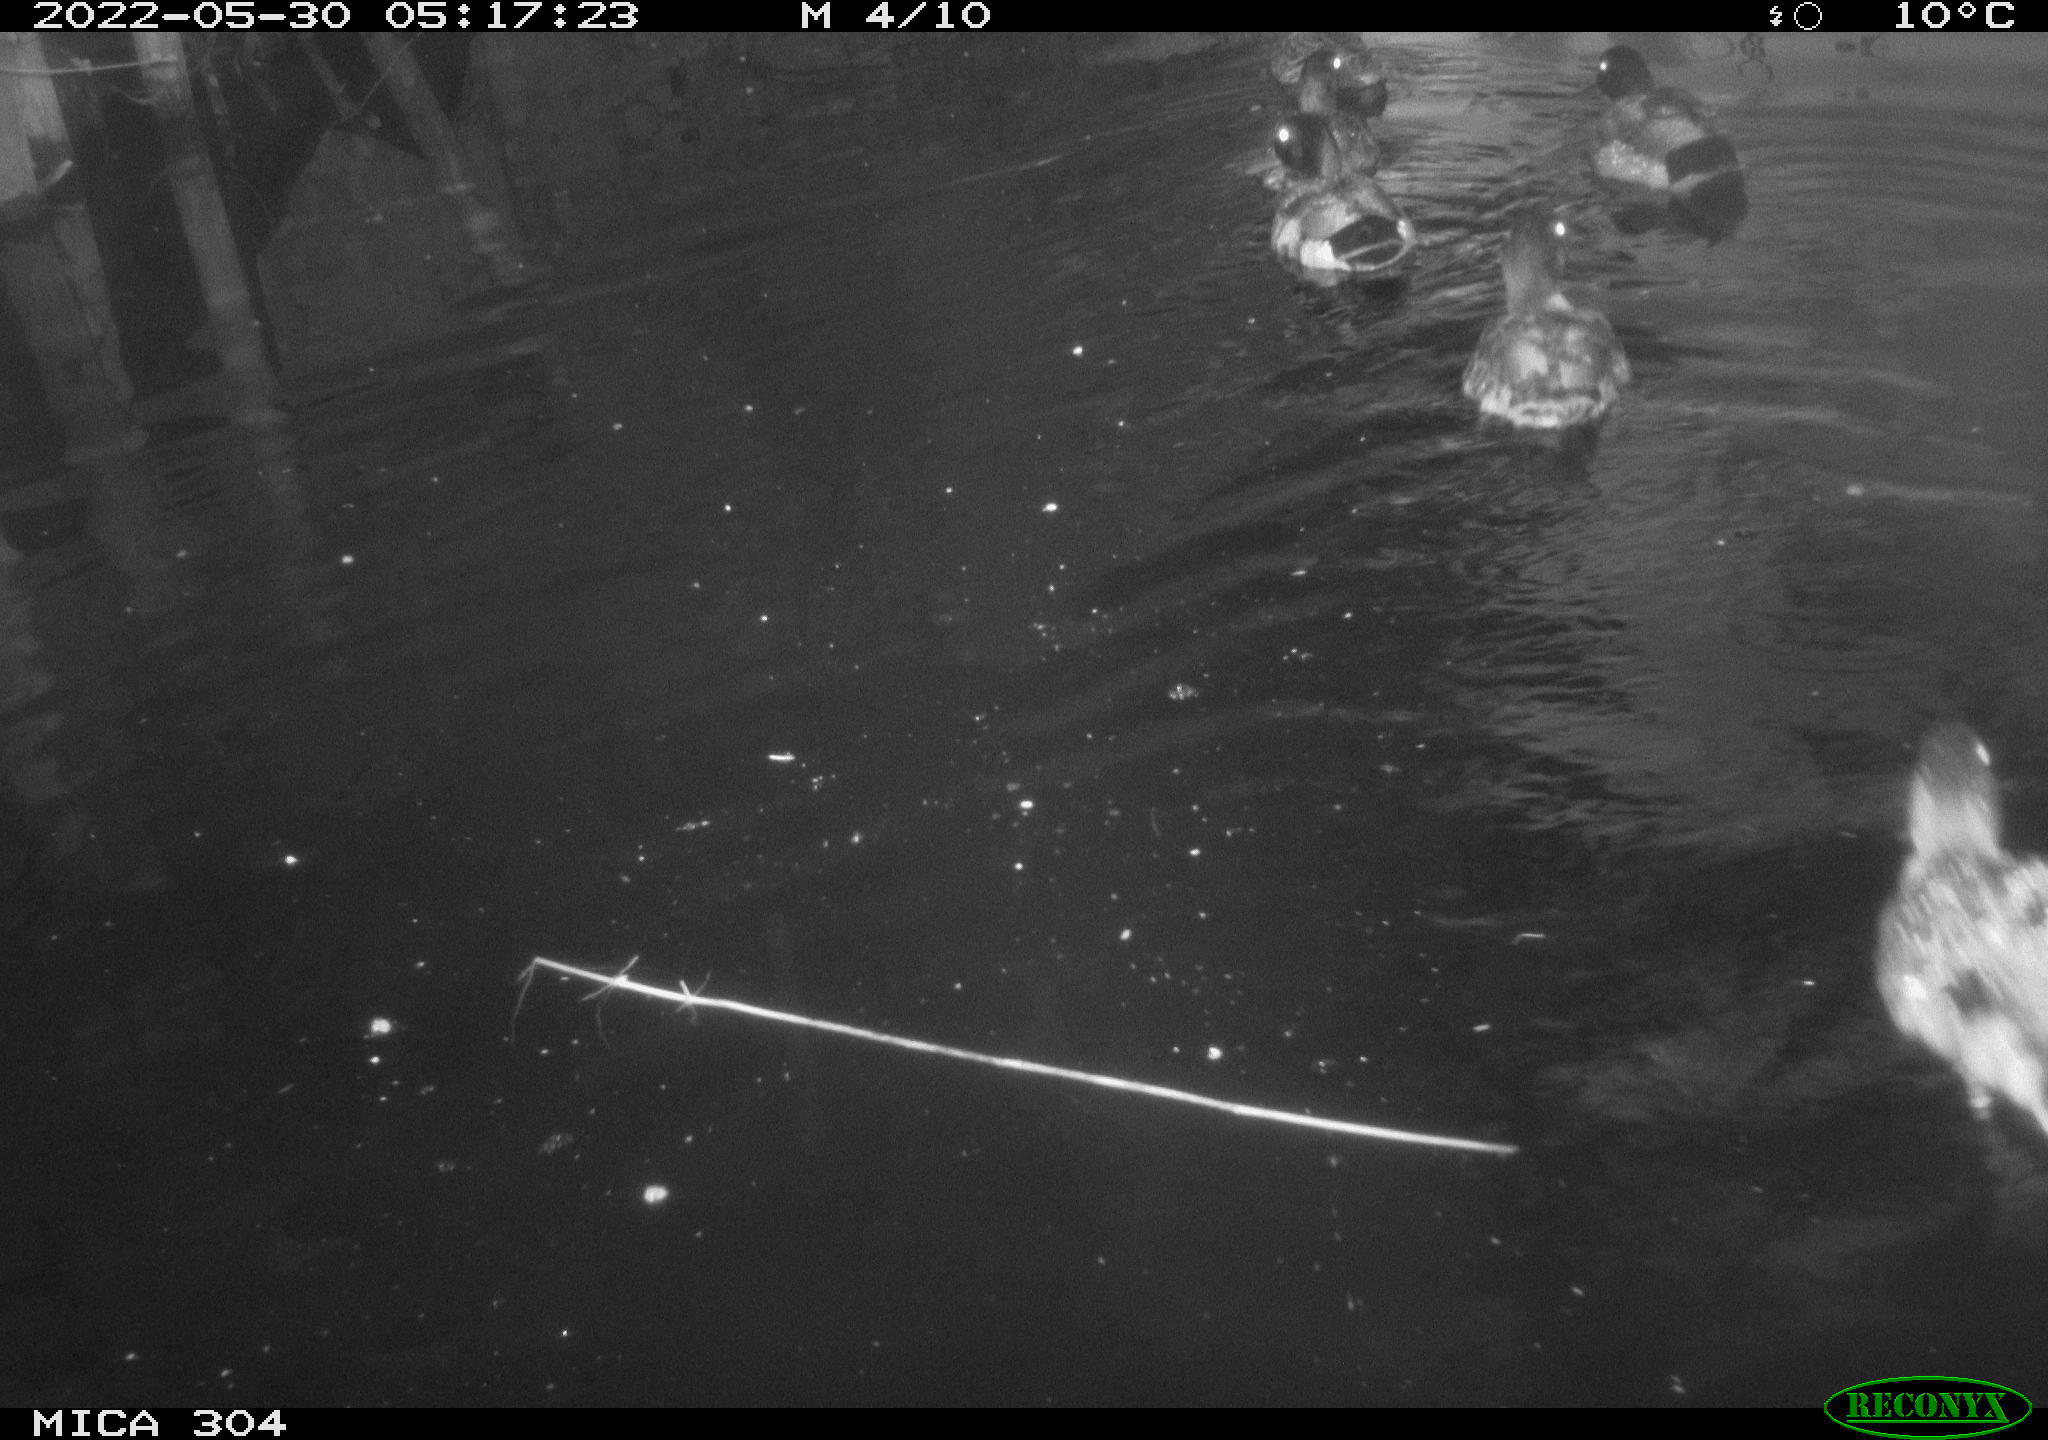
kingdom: Animalia
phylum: Chordata
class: Aves
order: Anseriformes
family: Anatidae
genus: Anas
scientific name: Anas platyrhynchos
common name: Mallard
